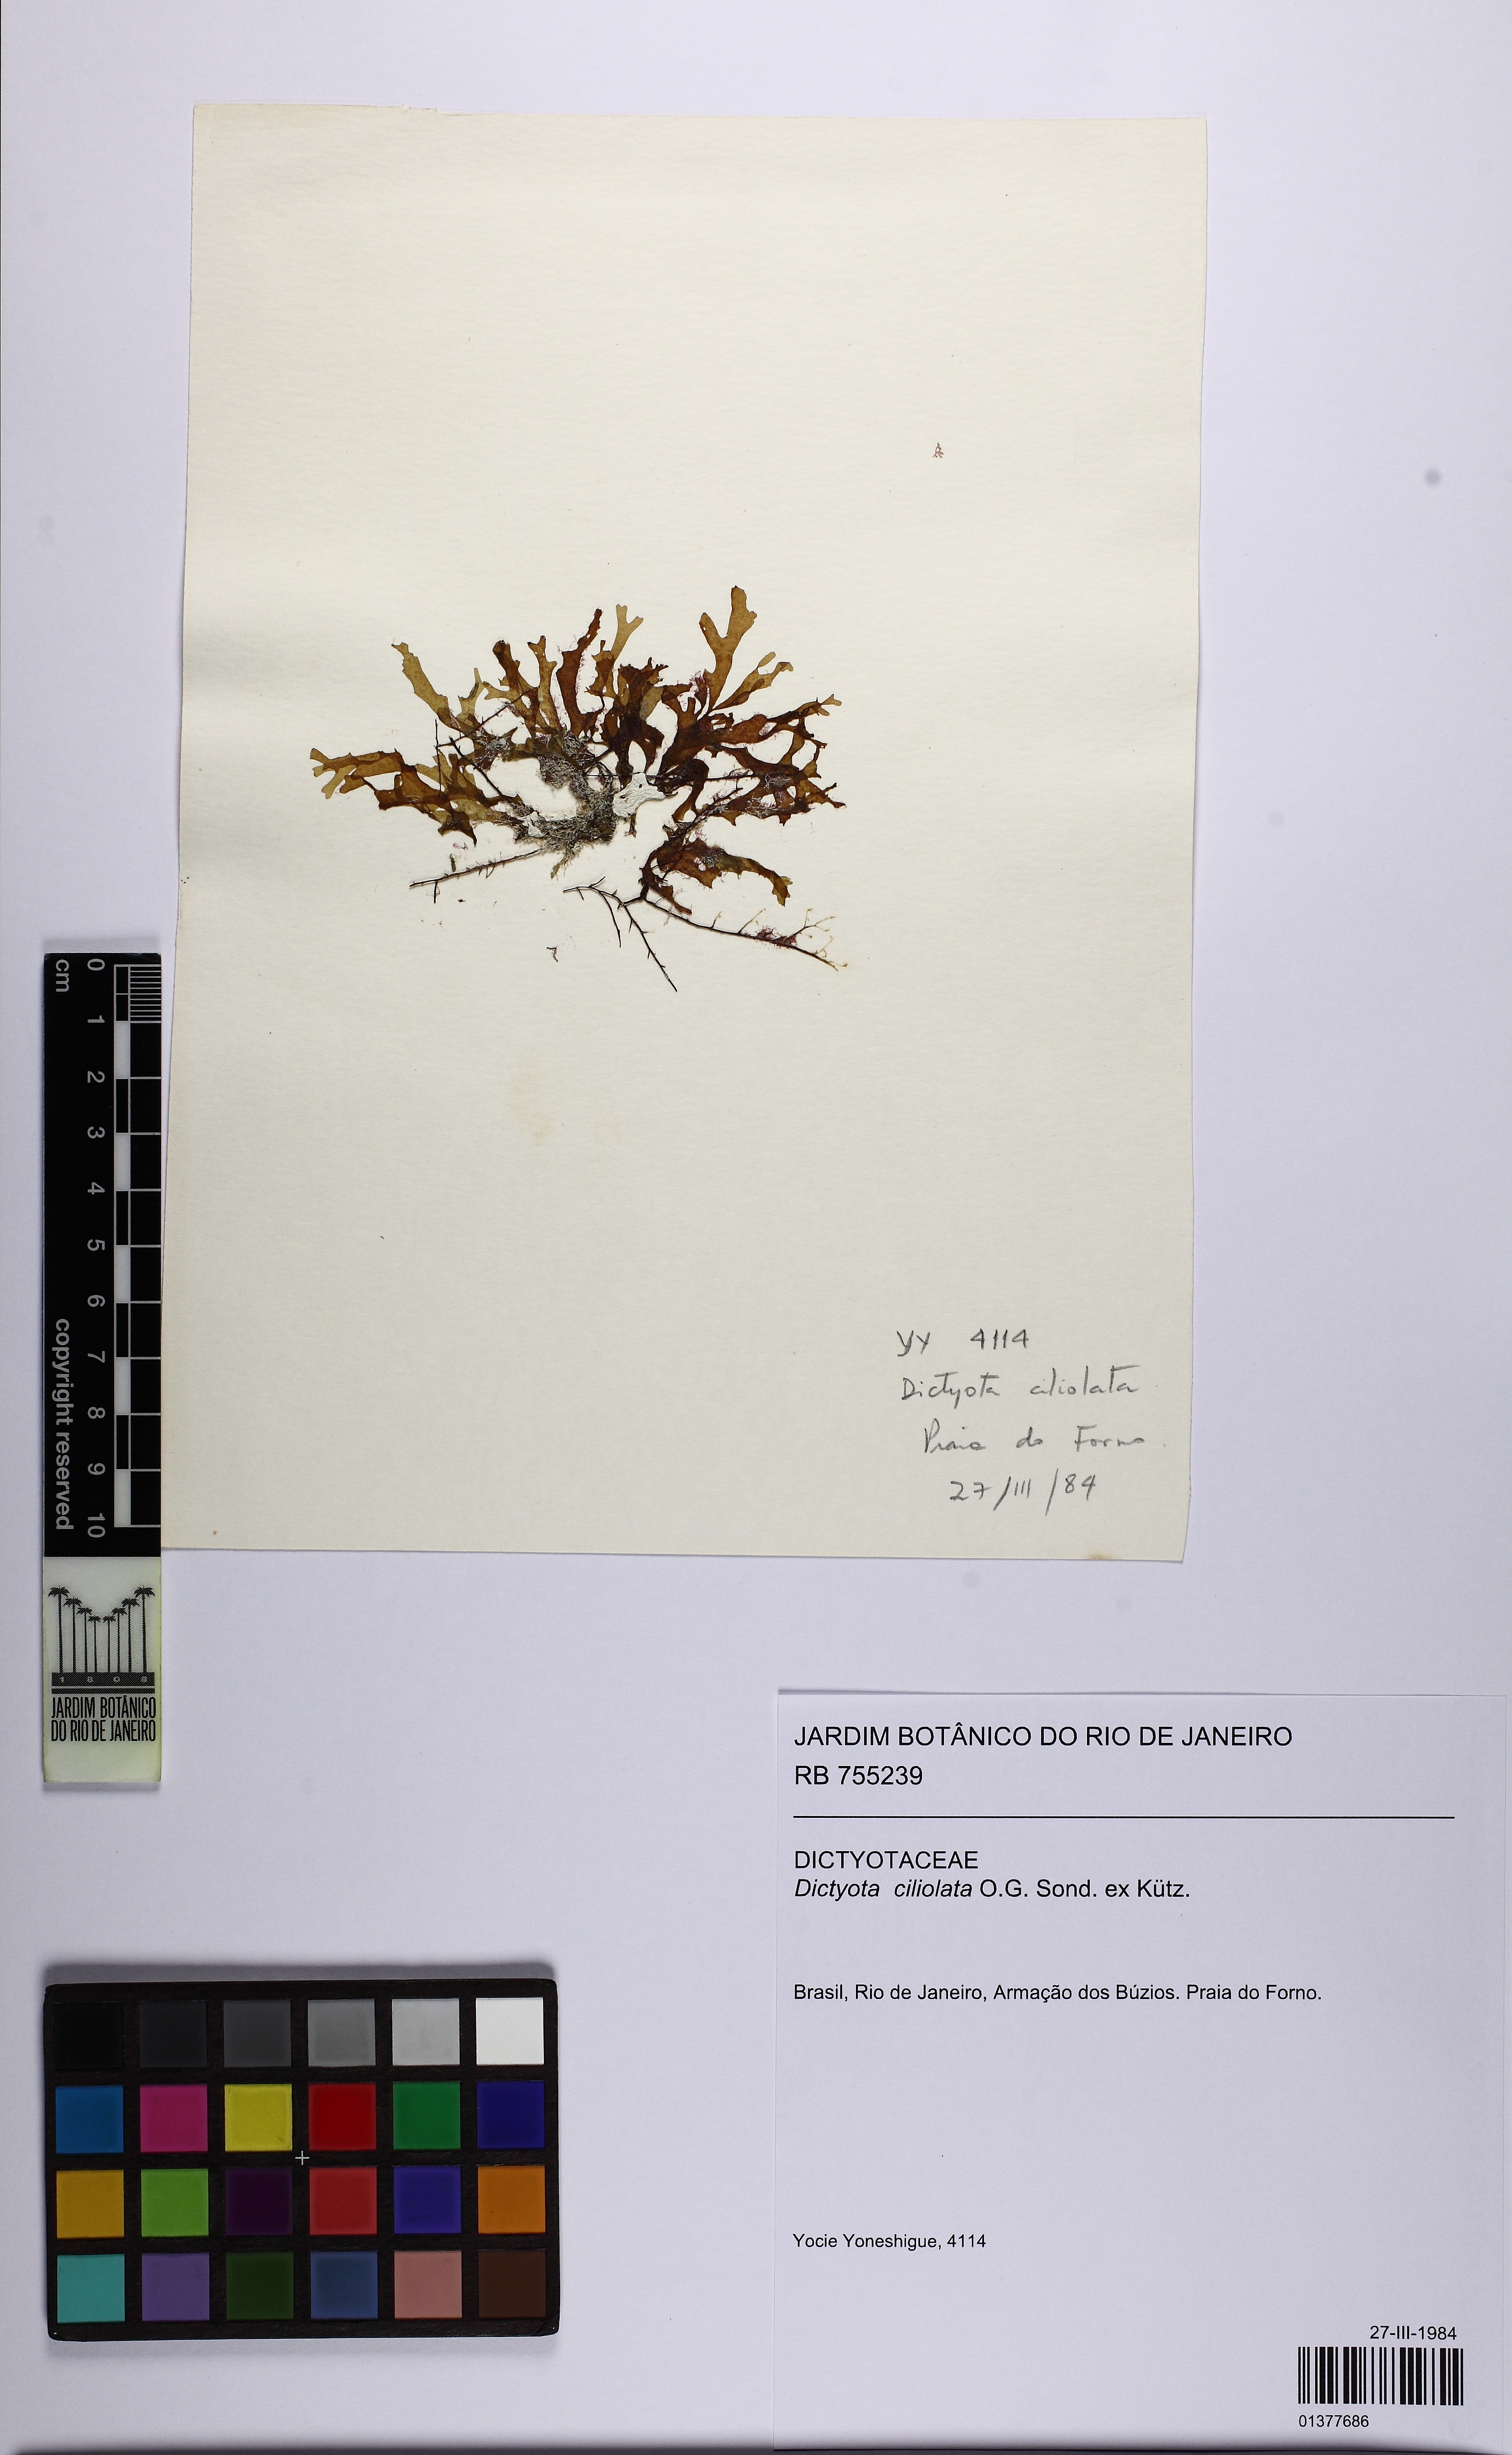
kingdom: Chromista
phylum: Ochrophyta
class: Phaeophyceae
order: Dictyotales
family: Dictyotaceae
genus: Dictyota
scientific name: Dictyota ciliolata
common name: Blue margined brown alga
